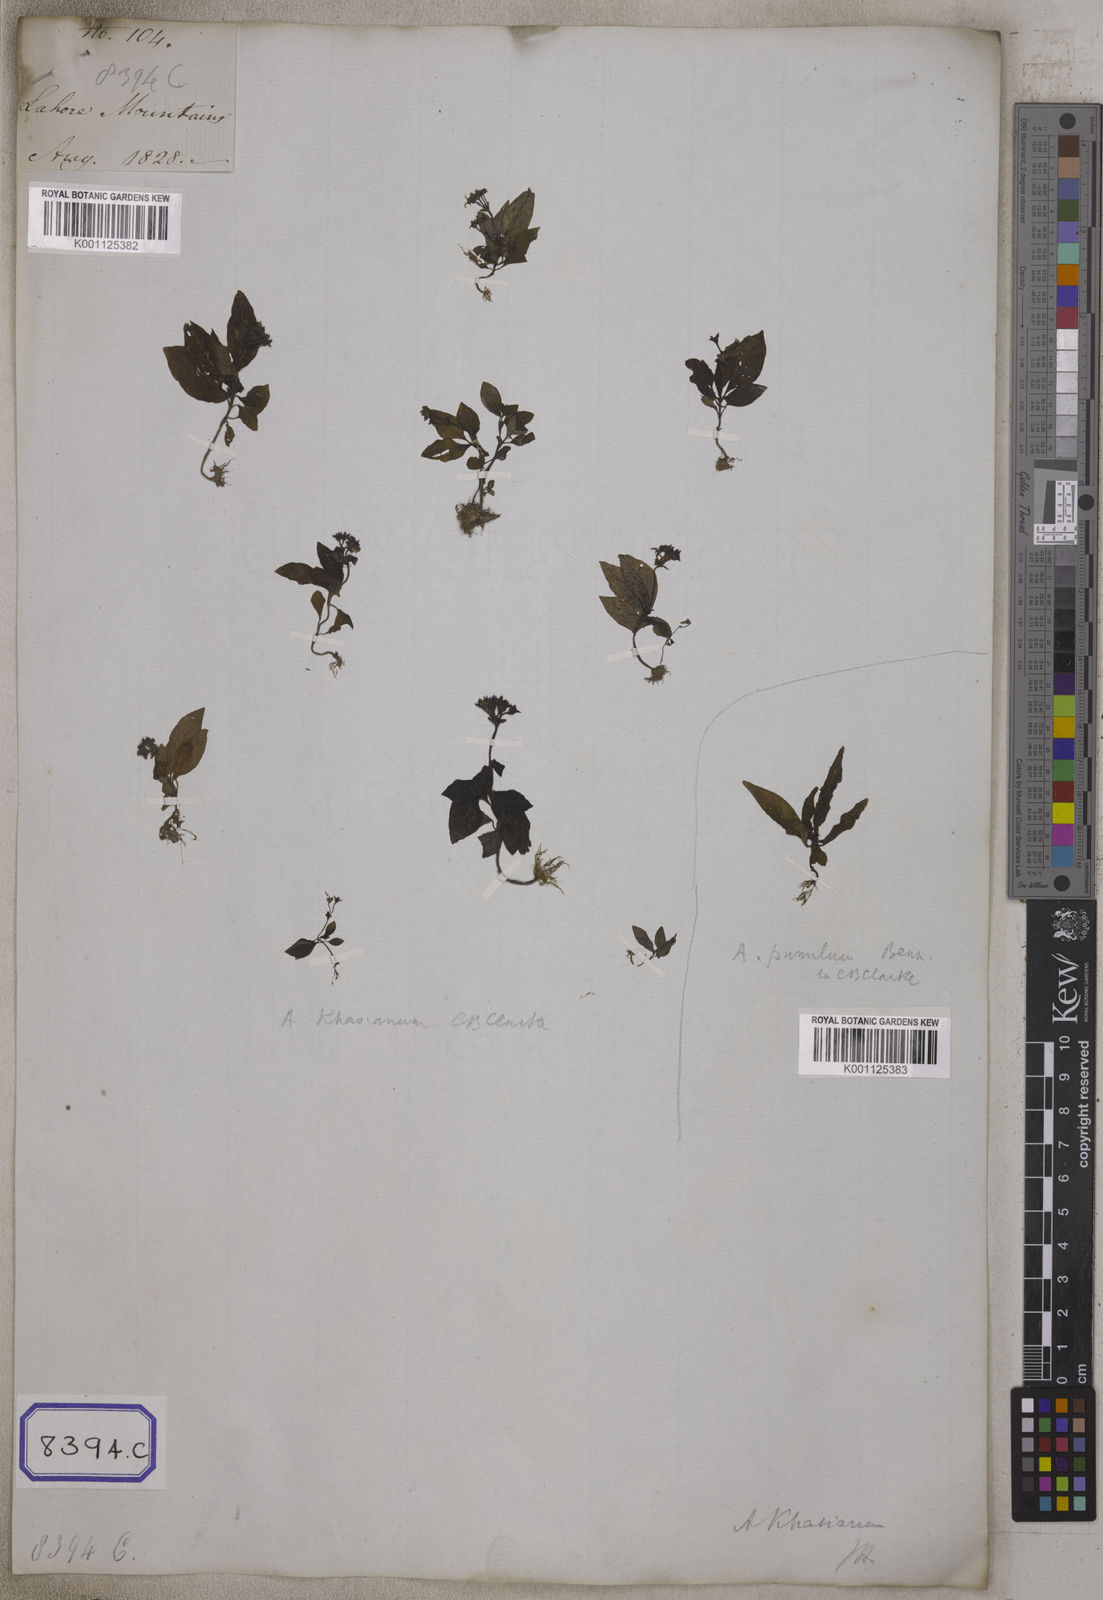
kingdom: Plantae
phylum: Tracheophyta
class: Magnoliopsida
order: Gentianales
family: Rubiaceae
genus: Argostemma
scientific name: Argostemma verticillatum
